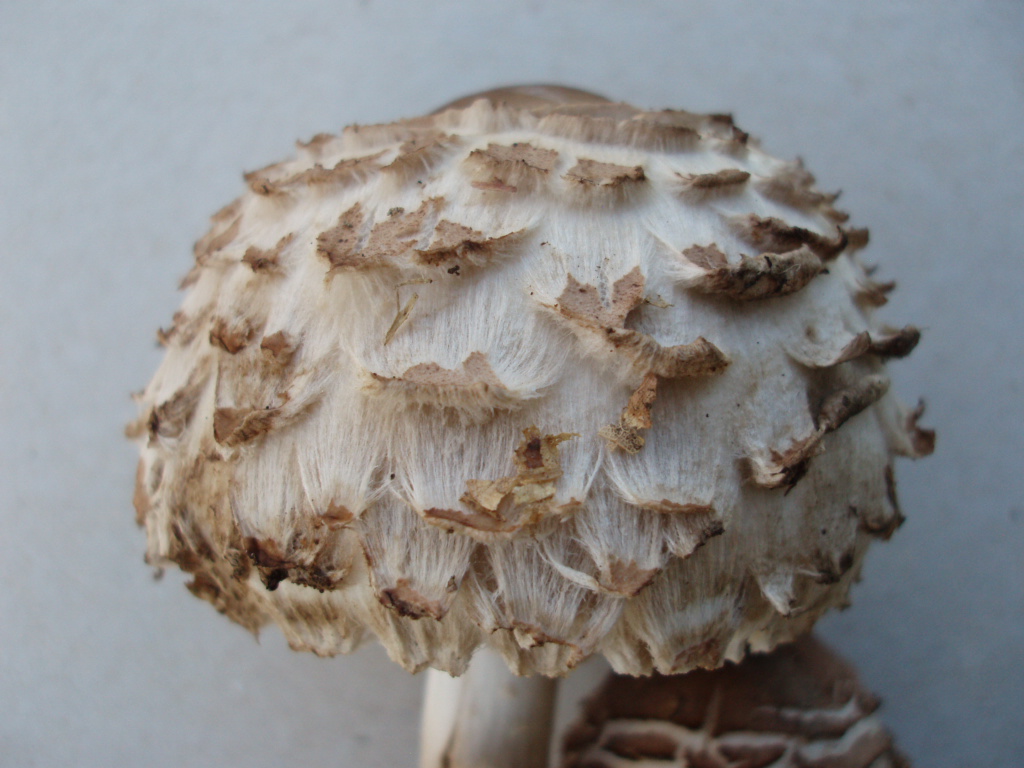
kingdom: Fungi
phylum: Basidiomycota
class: Agaricomycetes
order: Agaricales
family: Agaricaceae
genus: Chlorophyllum
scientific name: Chlorophyllum olivieri
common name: almindelig rabarberhat
